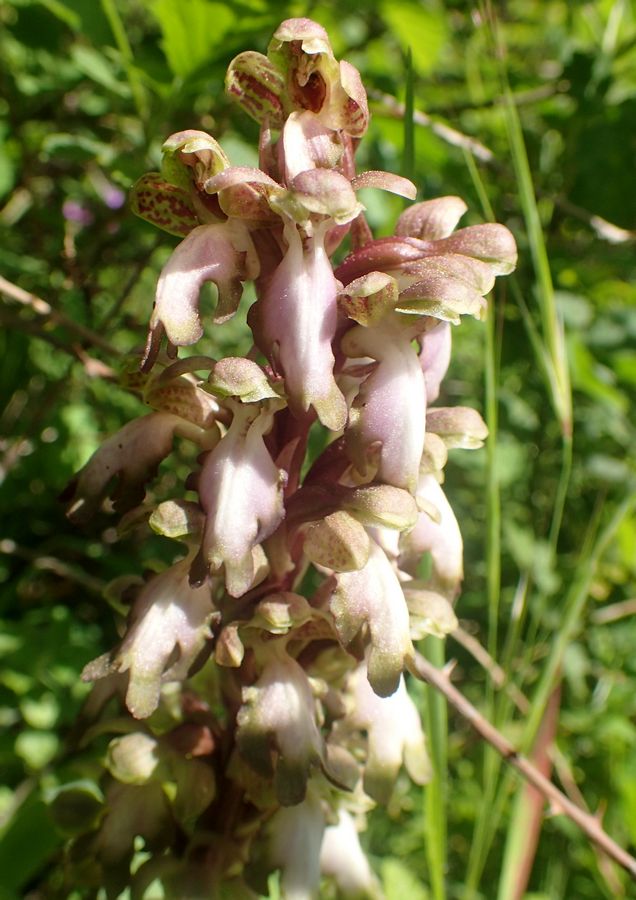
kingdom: Plantae
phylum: Tracheophyta
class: Liliopsida
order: Asparagales
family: Orchidaceae
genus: Himantoglossum
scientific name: Himantoglossum robertianum
